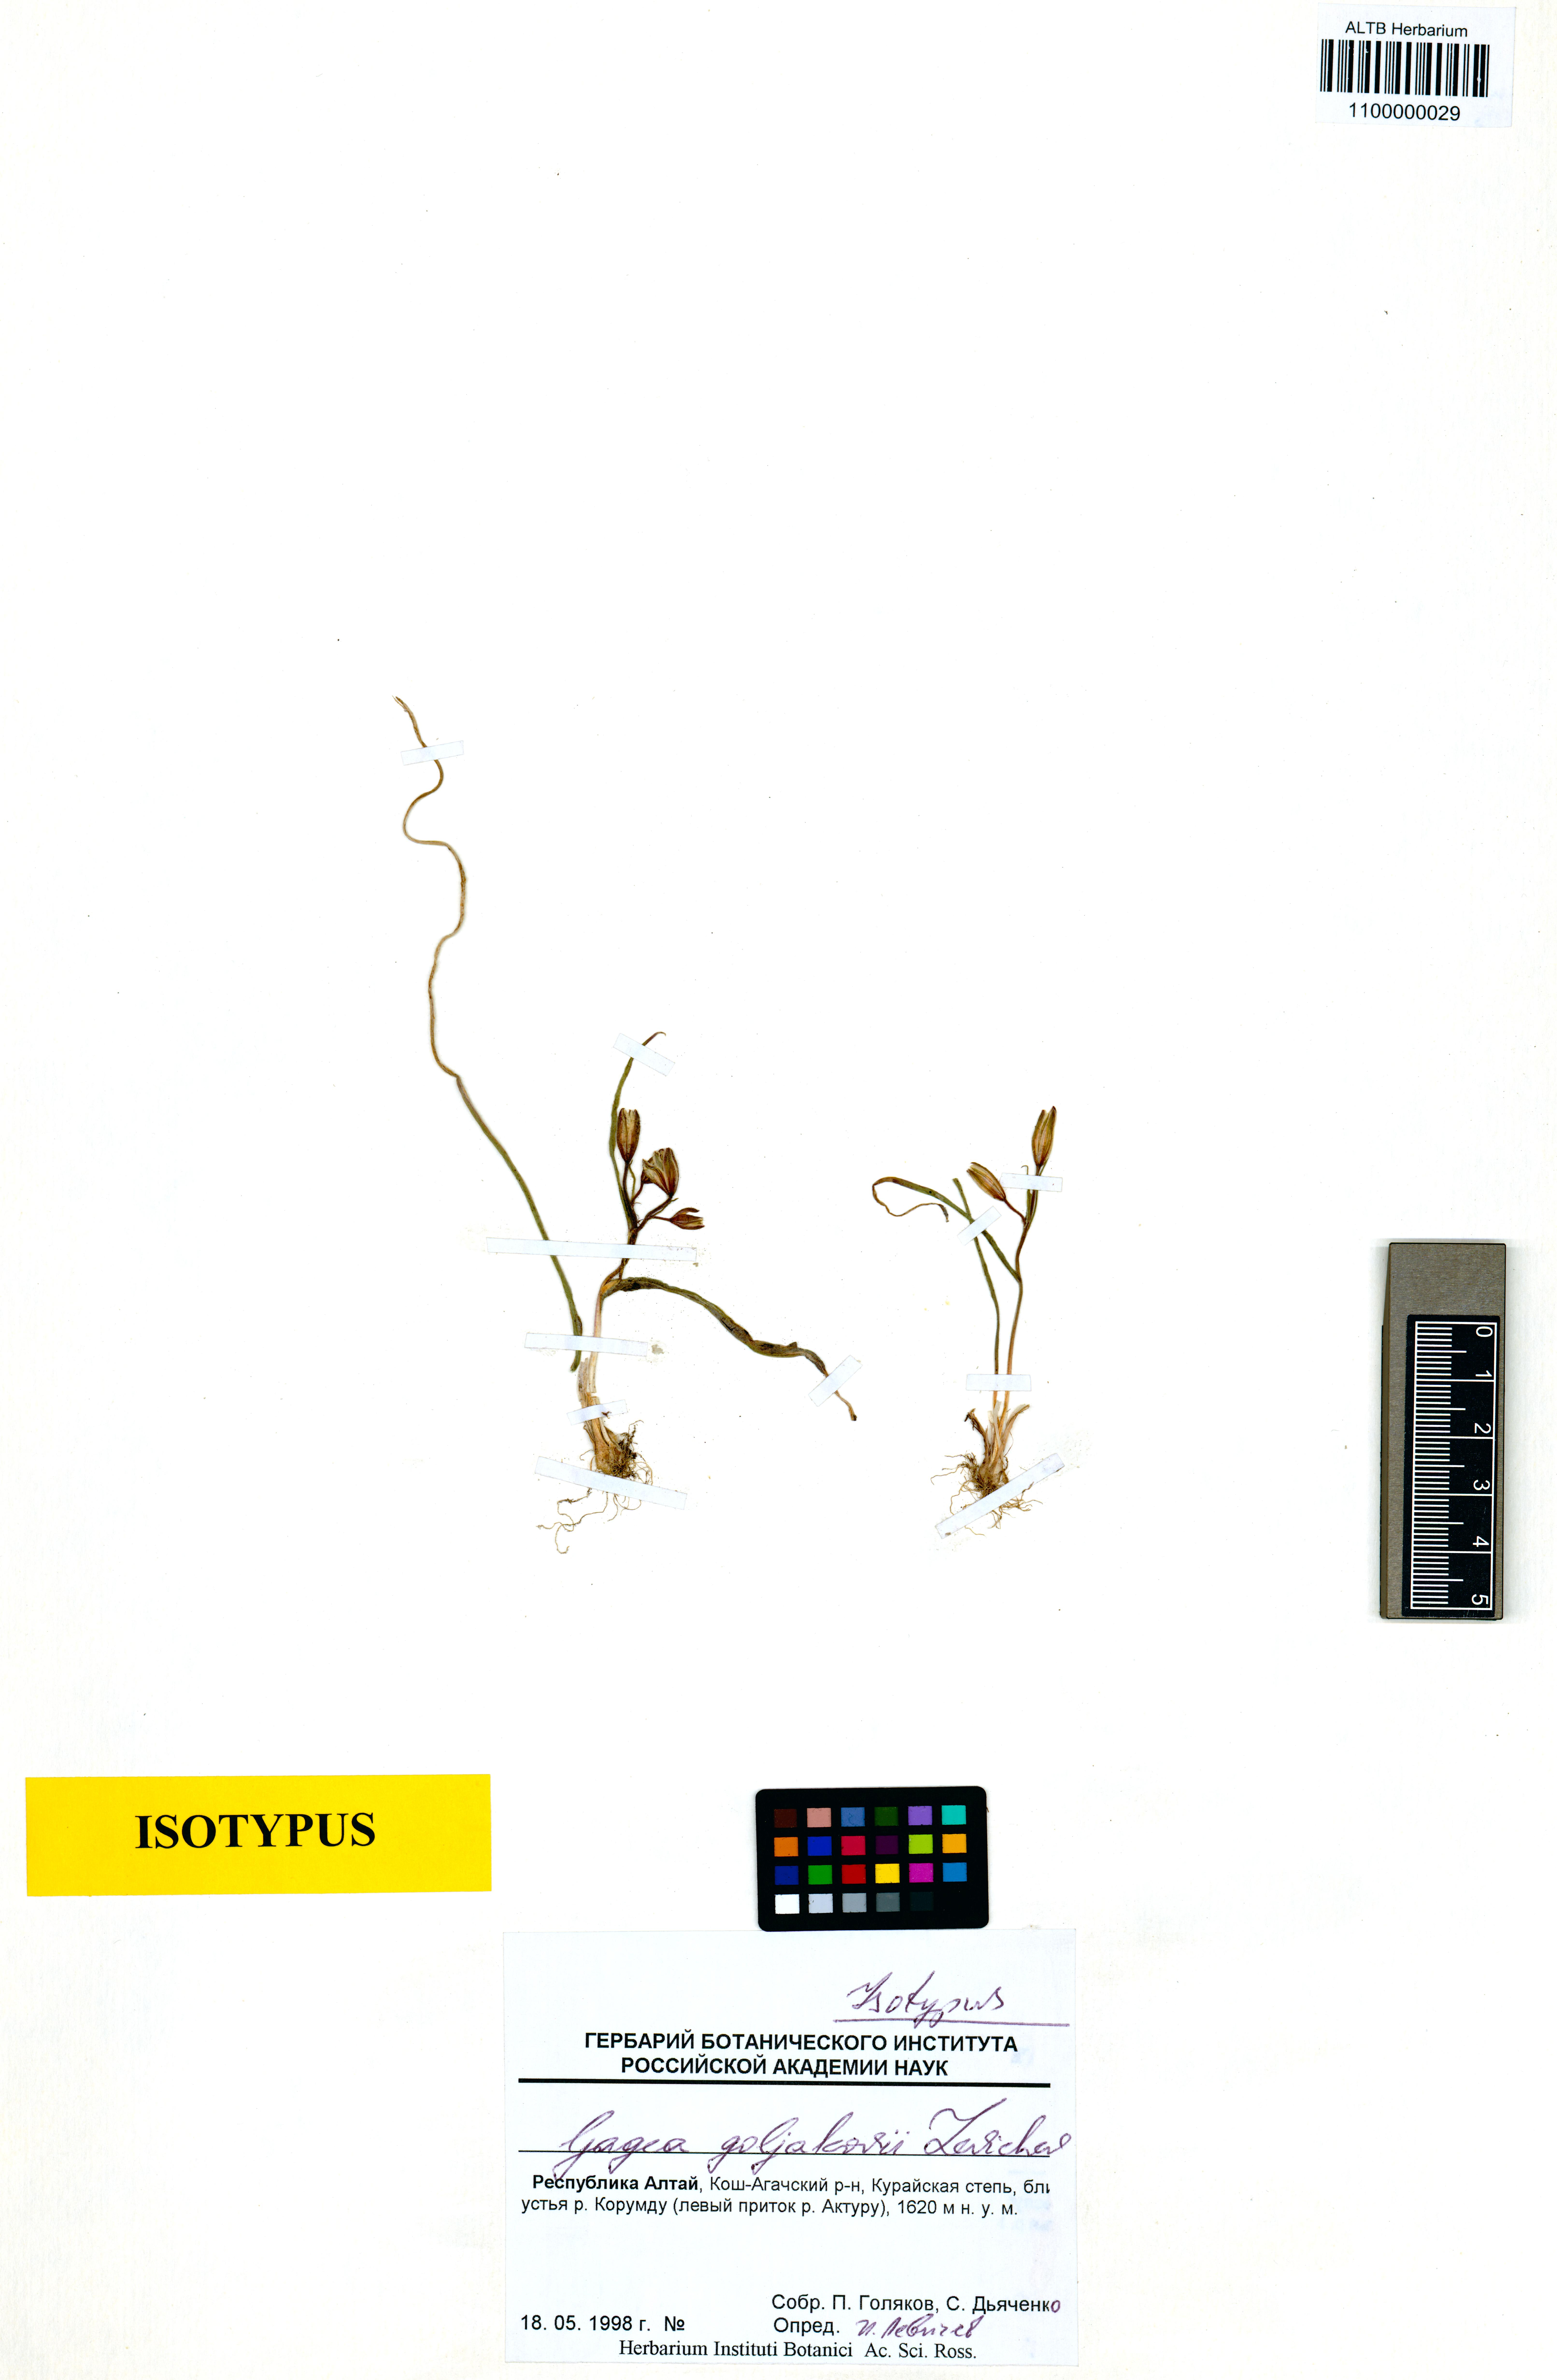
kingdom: Plantae
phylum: Tracheophyta
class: Liliopsida
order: Liliales
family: Liliaceae
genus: Gagea
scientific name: Gagea goljakovii
